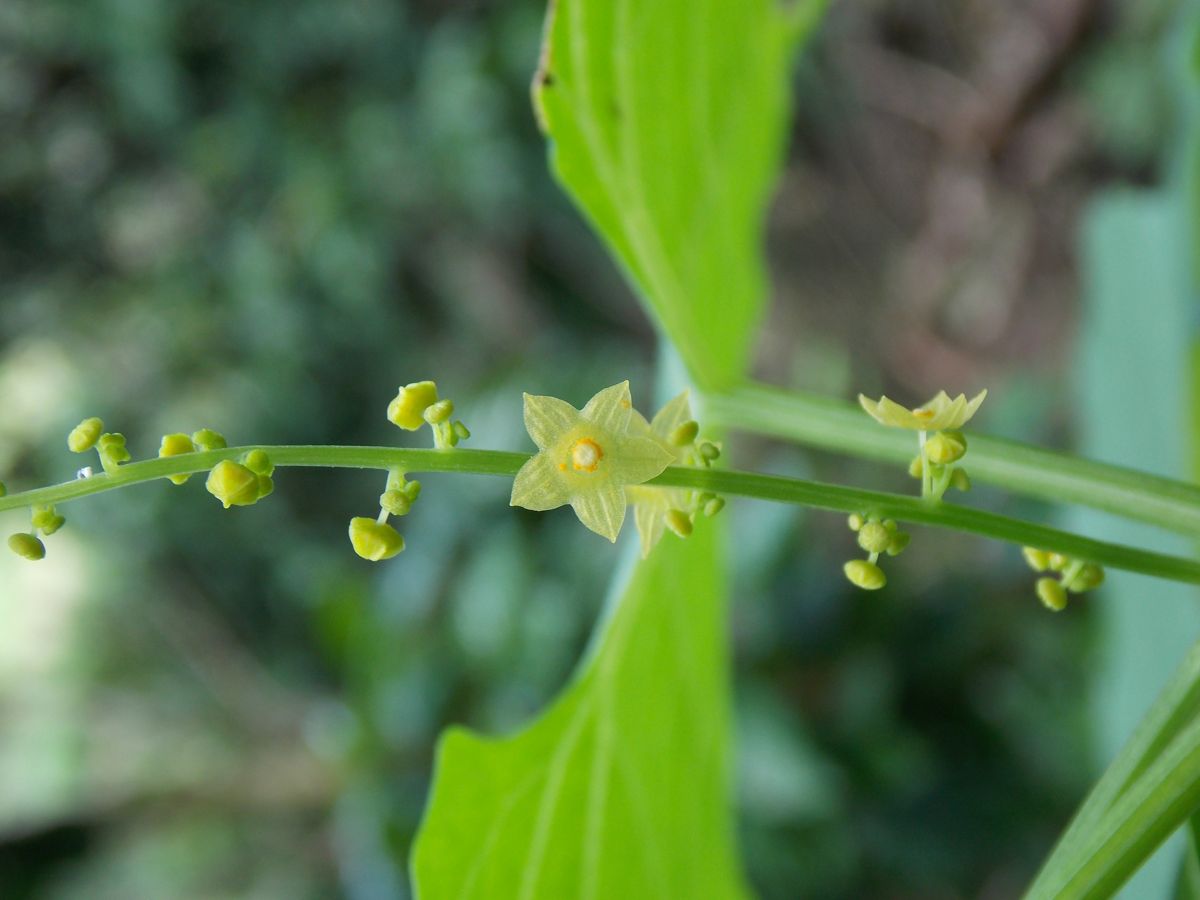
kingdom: Plantae
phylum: Tracheophyta
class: Magnoliopsida
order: Cucurbitales
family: Cucurbitaceae
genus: Melothria
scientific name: Melothria scabra
